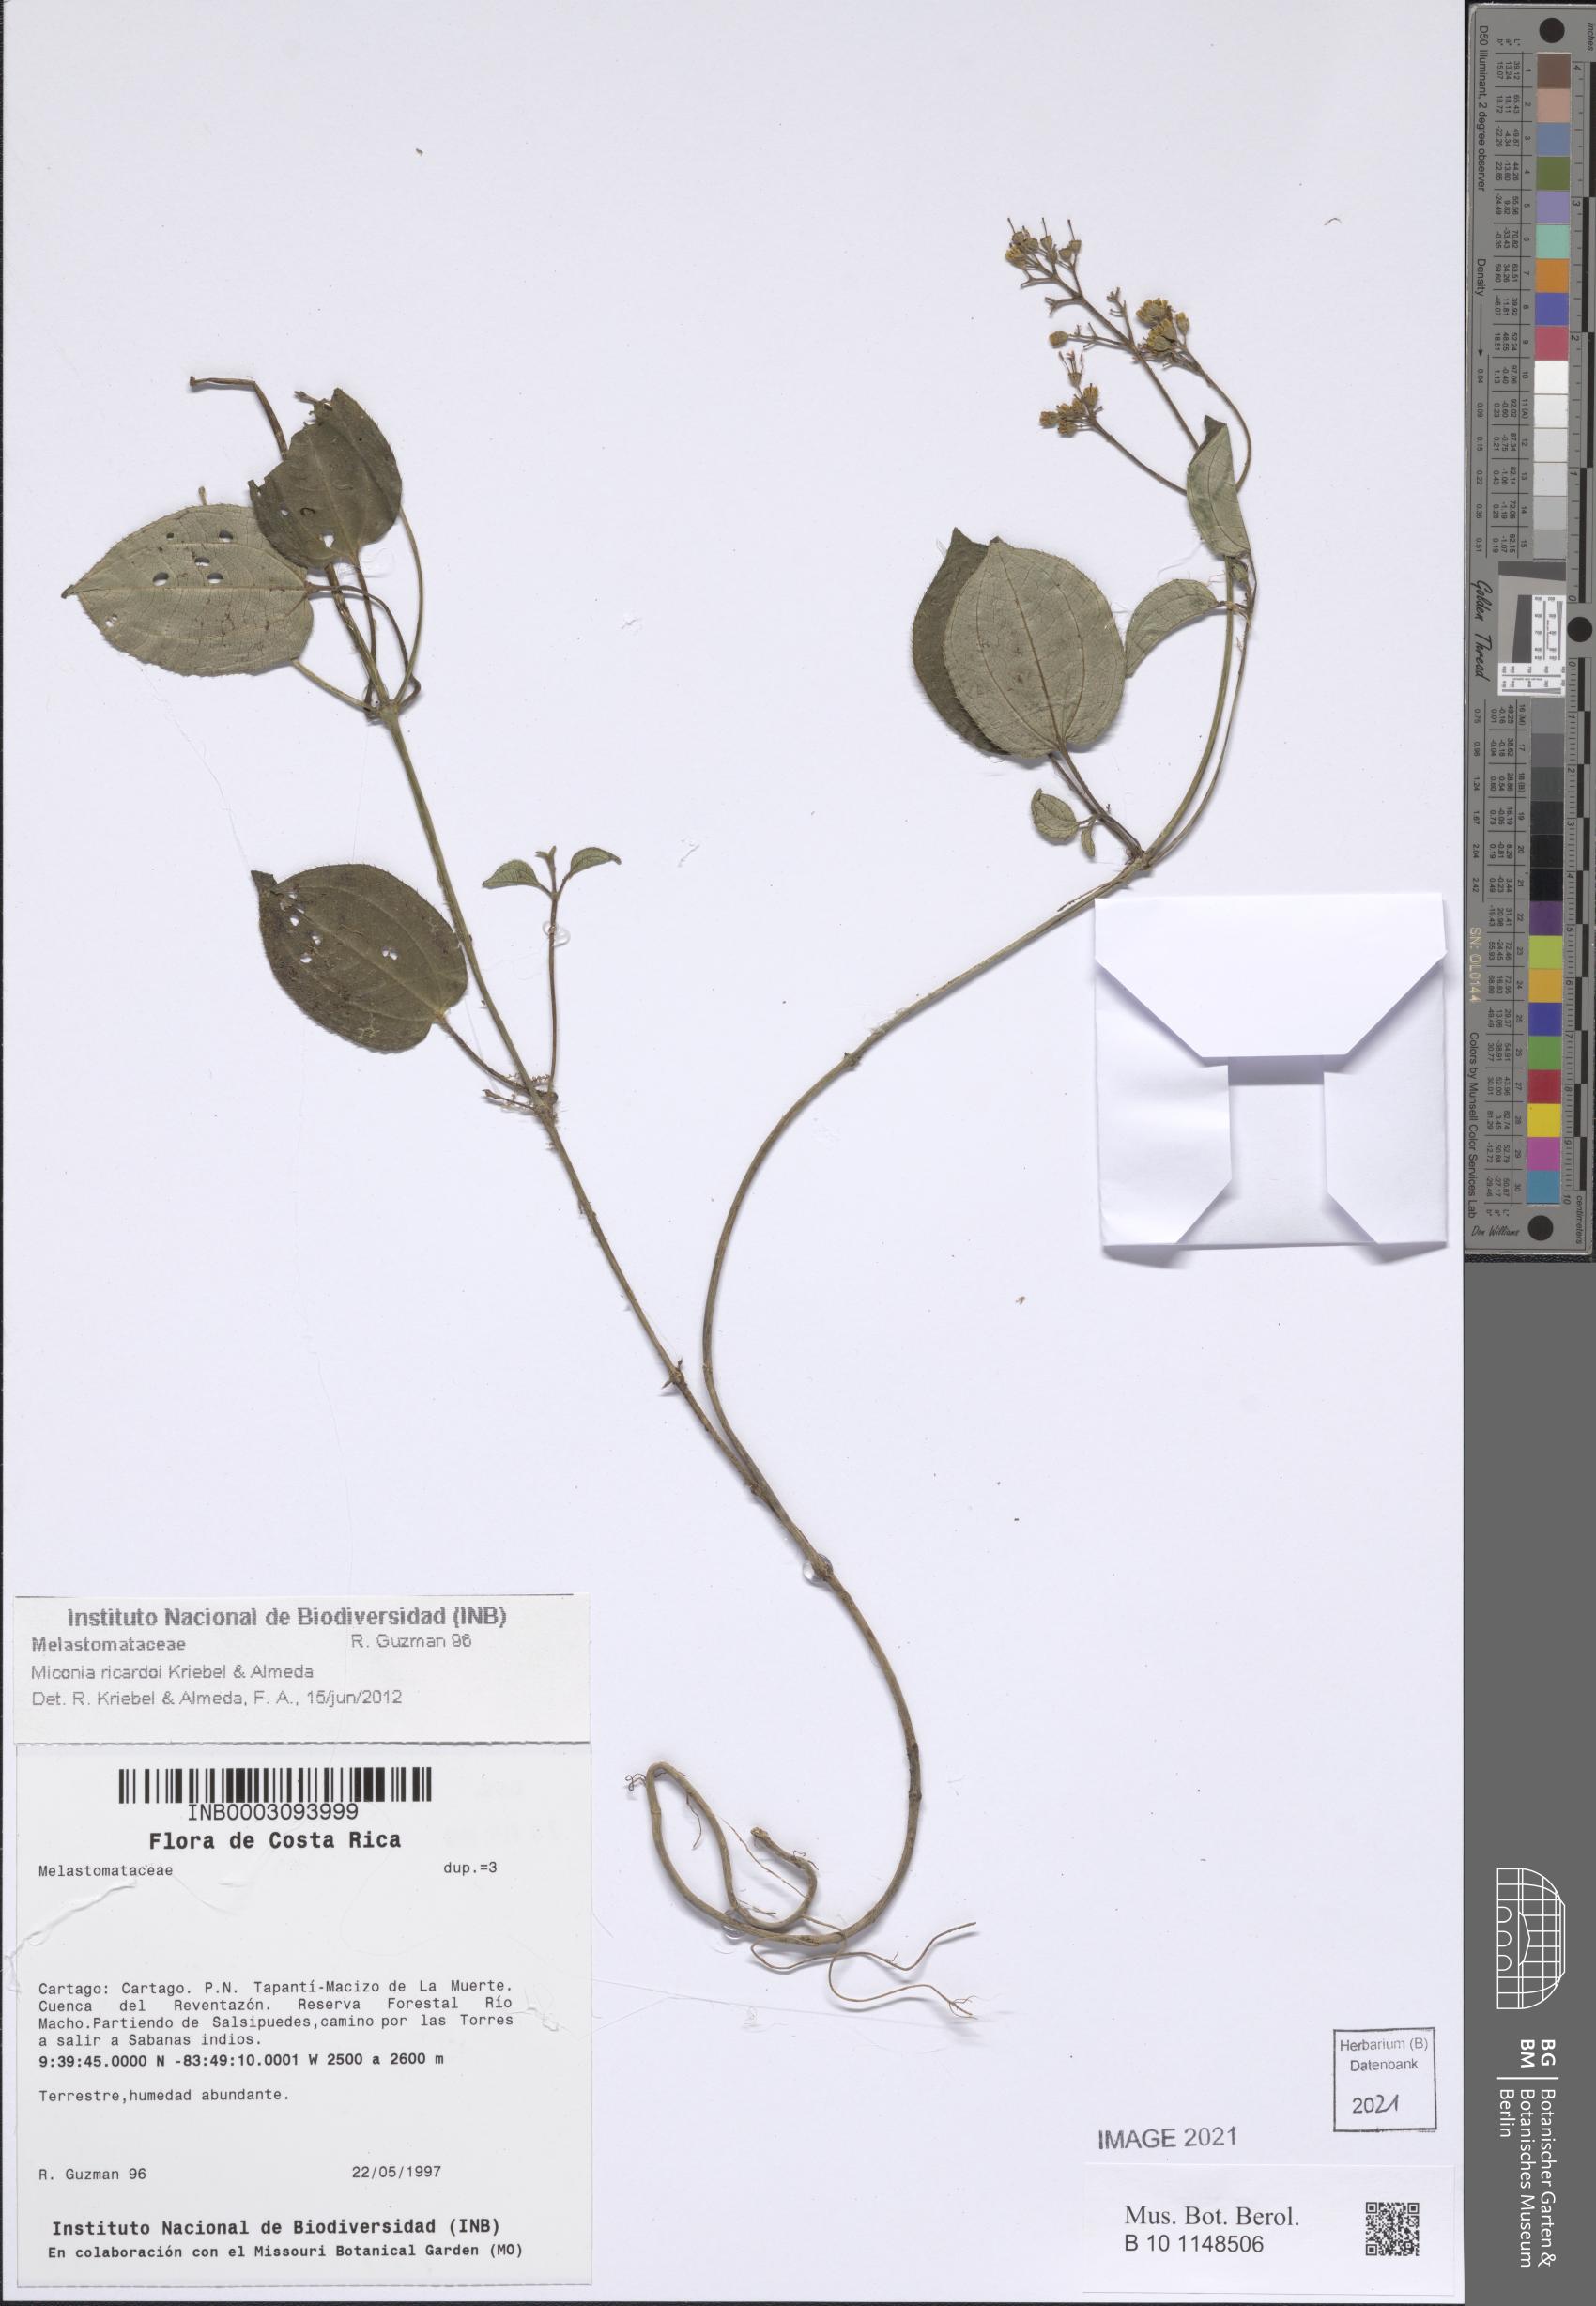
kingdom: Plantae
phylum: Tracheophyta
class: Magnoliopsida
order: Myrtales
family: Melastomataceae
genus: Miconia
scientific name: Miconia ricardoi
